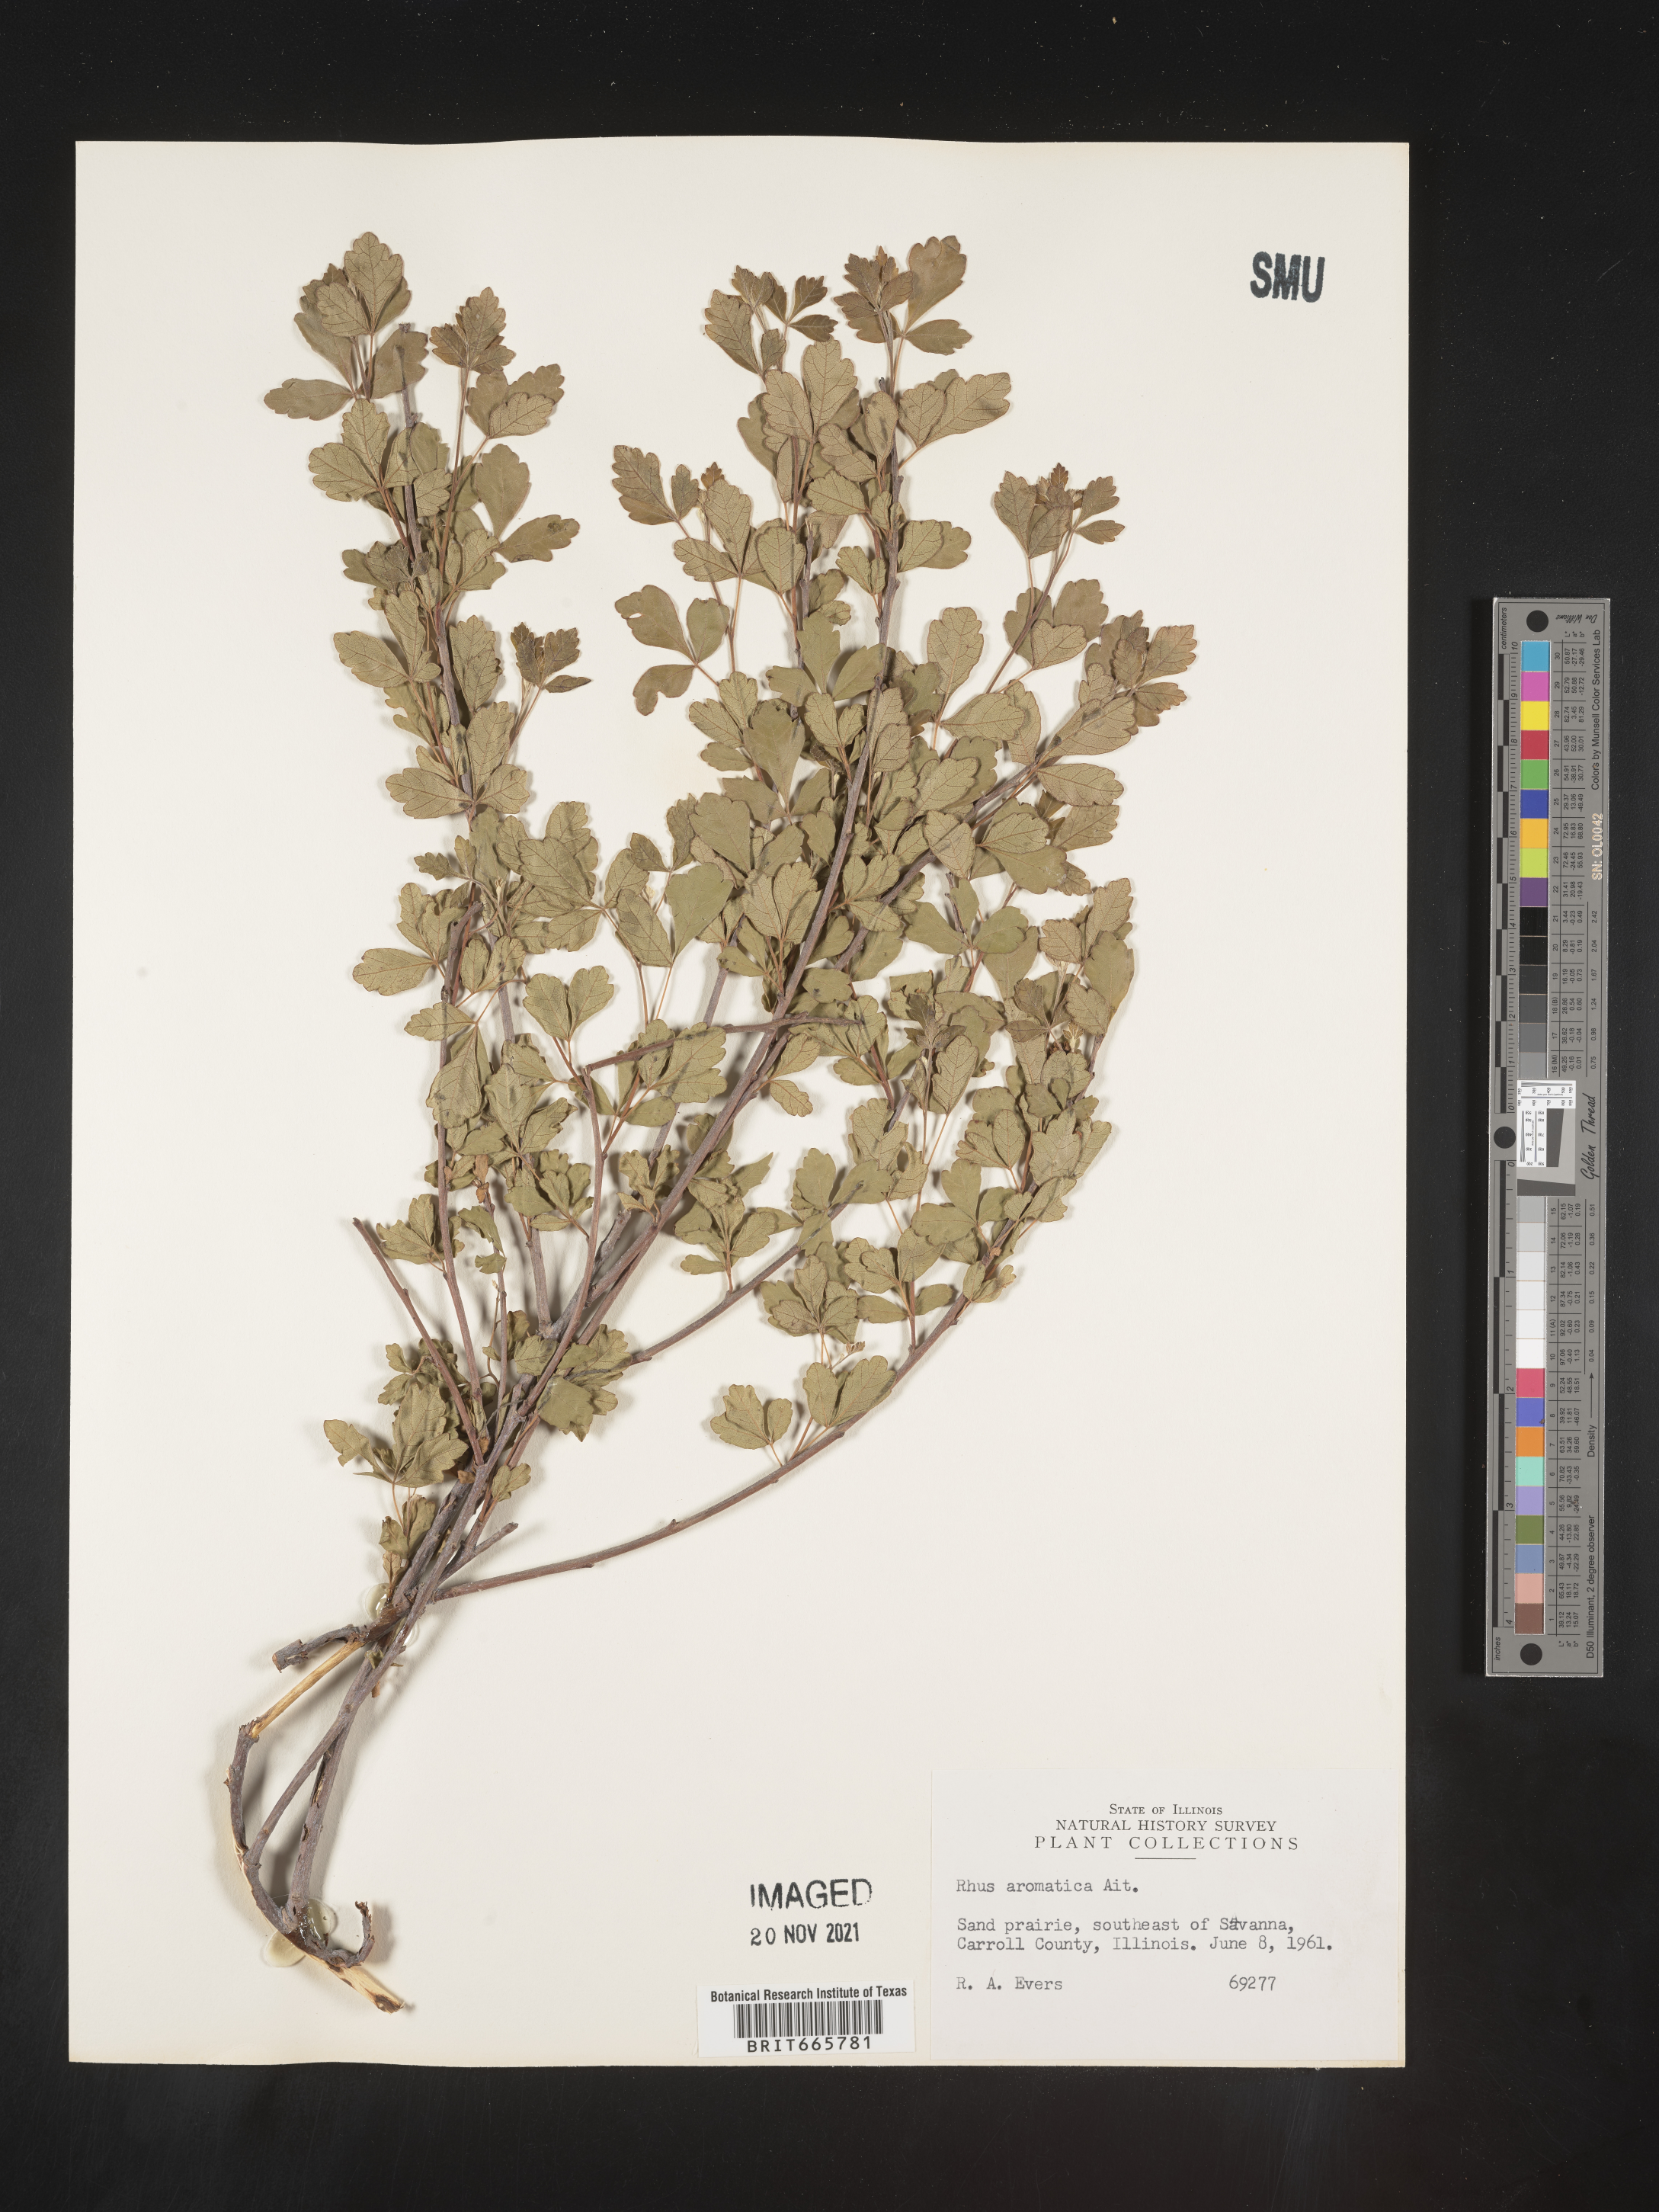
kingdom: Plantae
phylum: Tracheophyta
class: Magnoliopsida
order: Sapindales
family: Anacardiaceae
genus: Rhus
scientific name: Rhus aromatica
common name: Aromatic sumac
